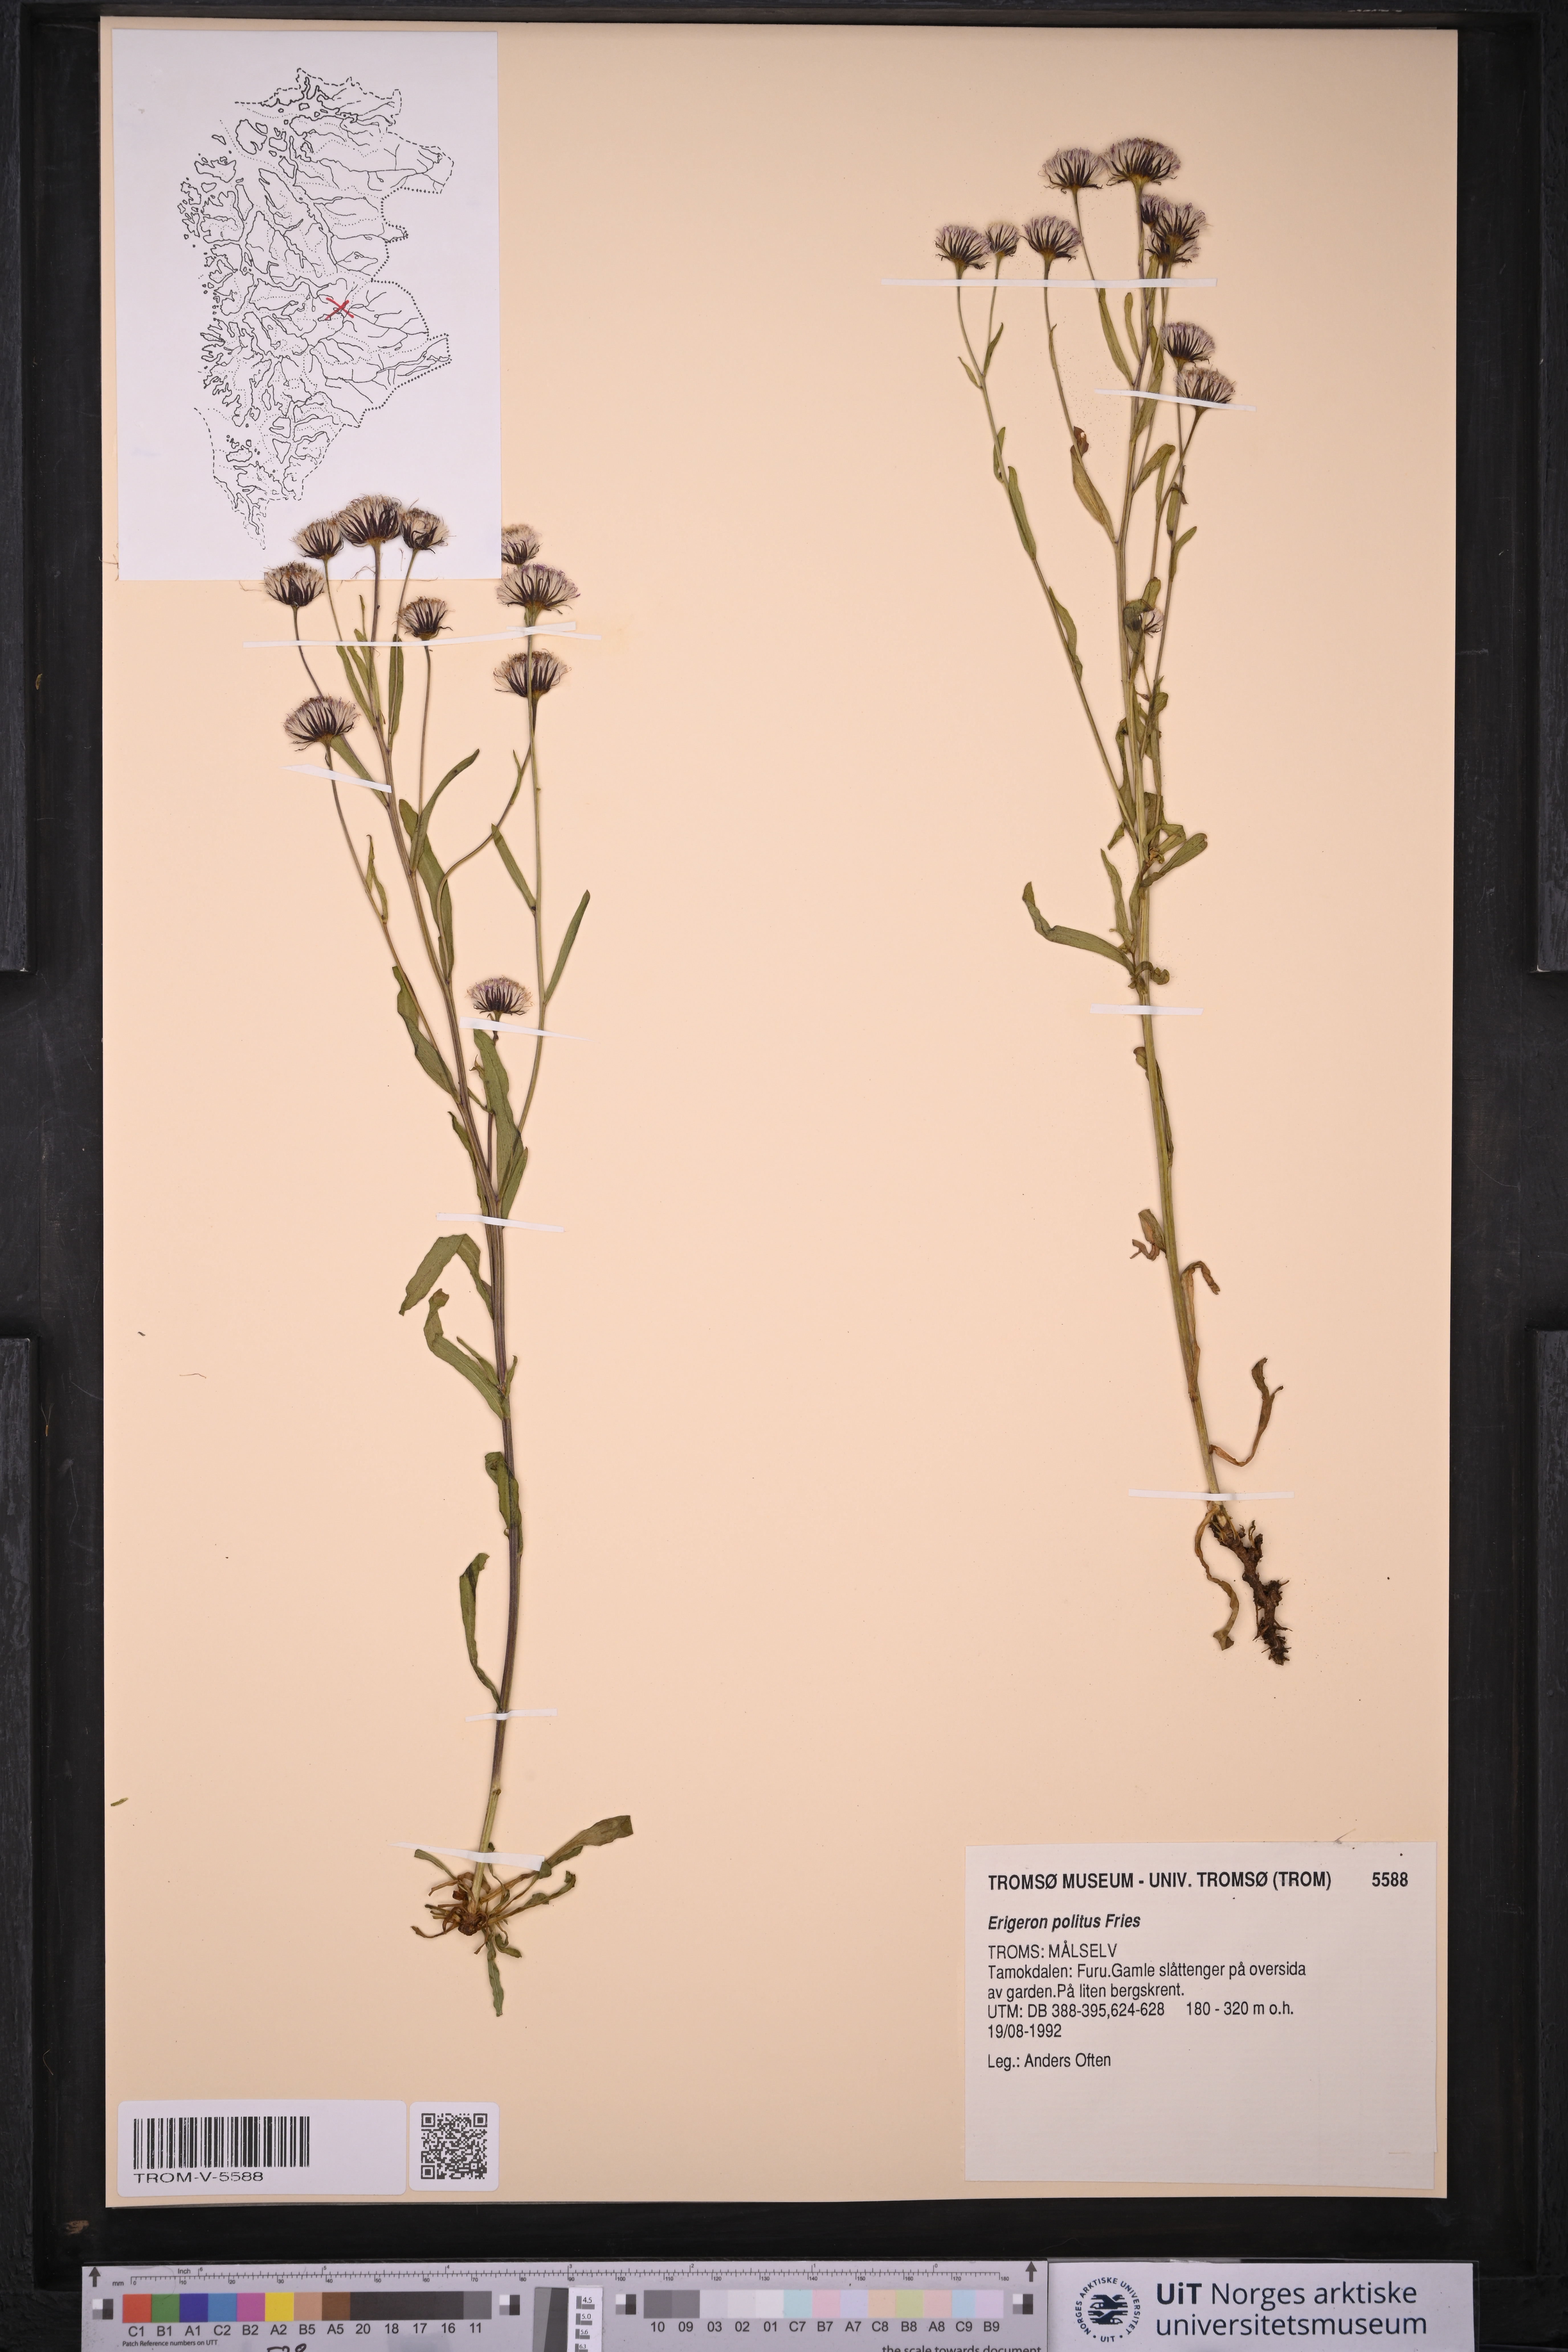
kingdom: Plantae
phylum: Tracheophyta
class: Magnoliopsida
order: Asterales
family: Asteraceae
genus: Erigeron
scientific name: Erigeron politus
